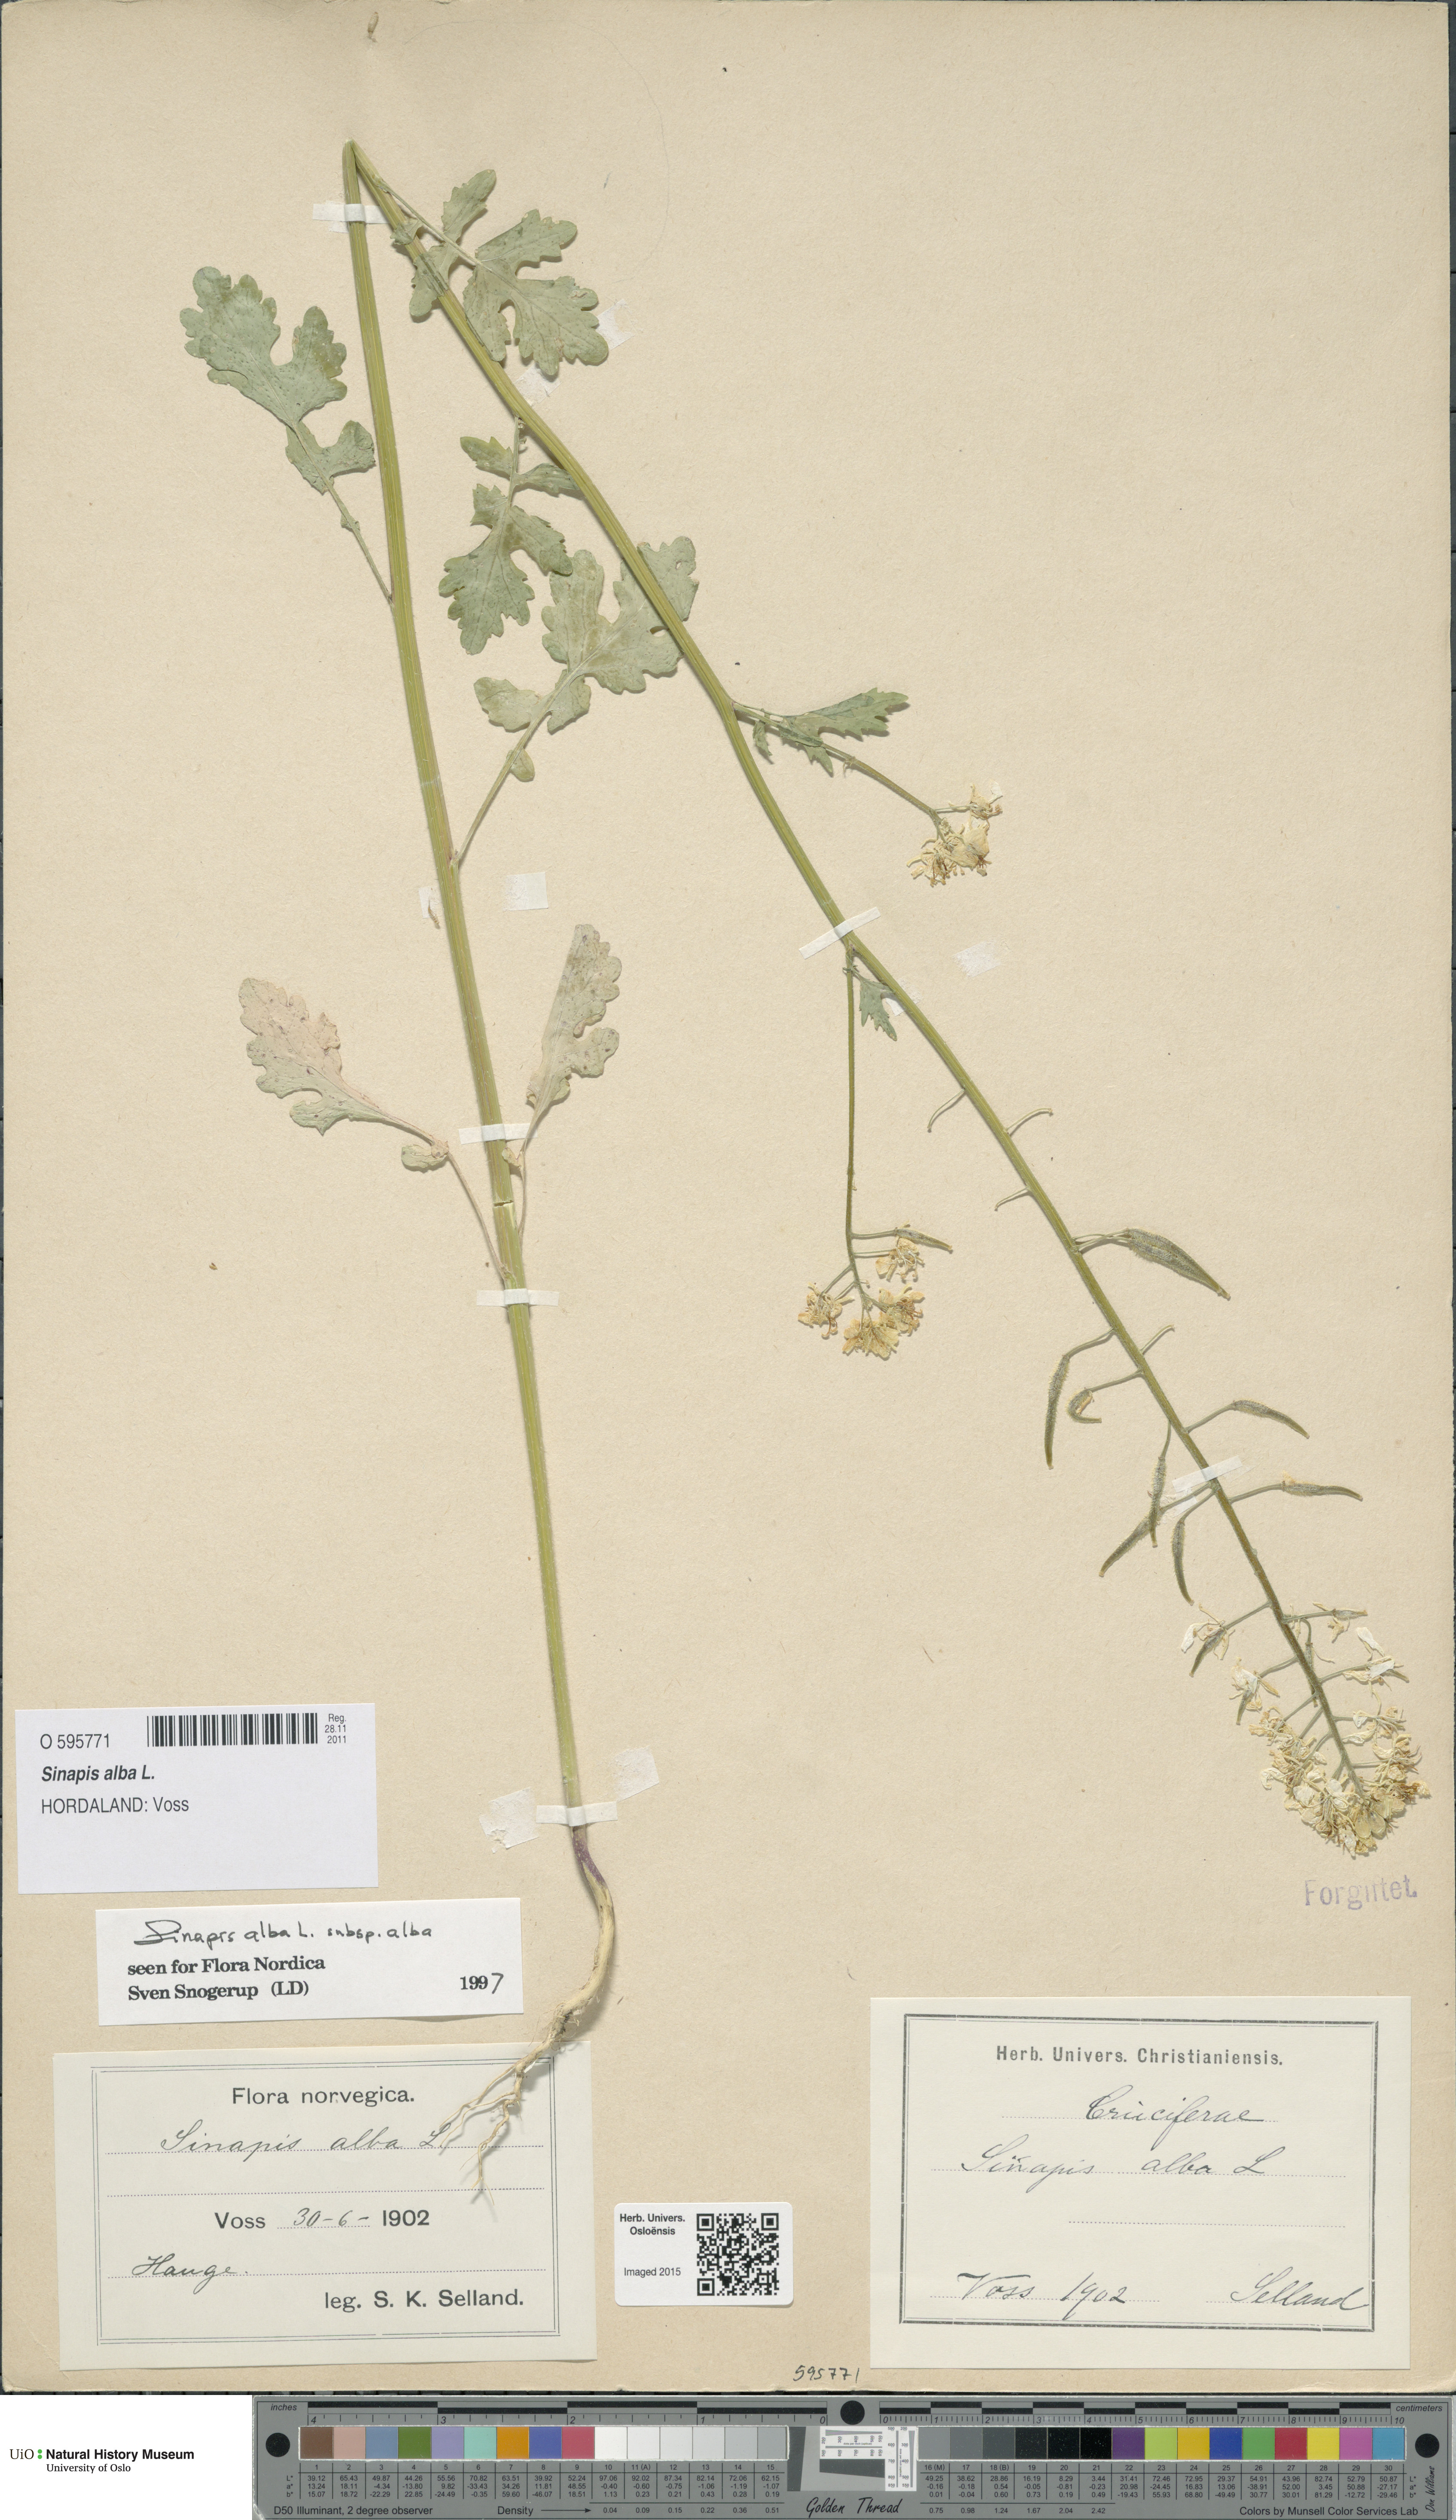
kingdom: Plantae
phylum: Tracheophyta
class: Magnoliopsida
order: Brassicales
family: Brassicaceae
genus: Sinapis
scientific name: Sinapis alba
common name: White mustard
